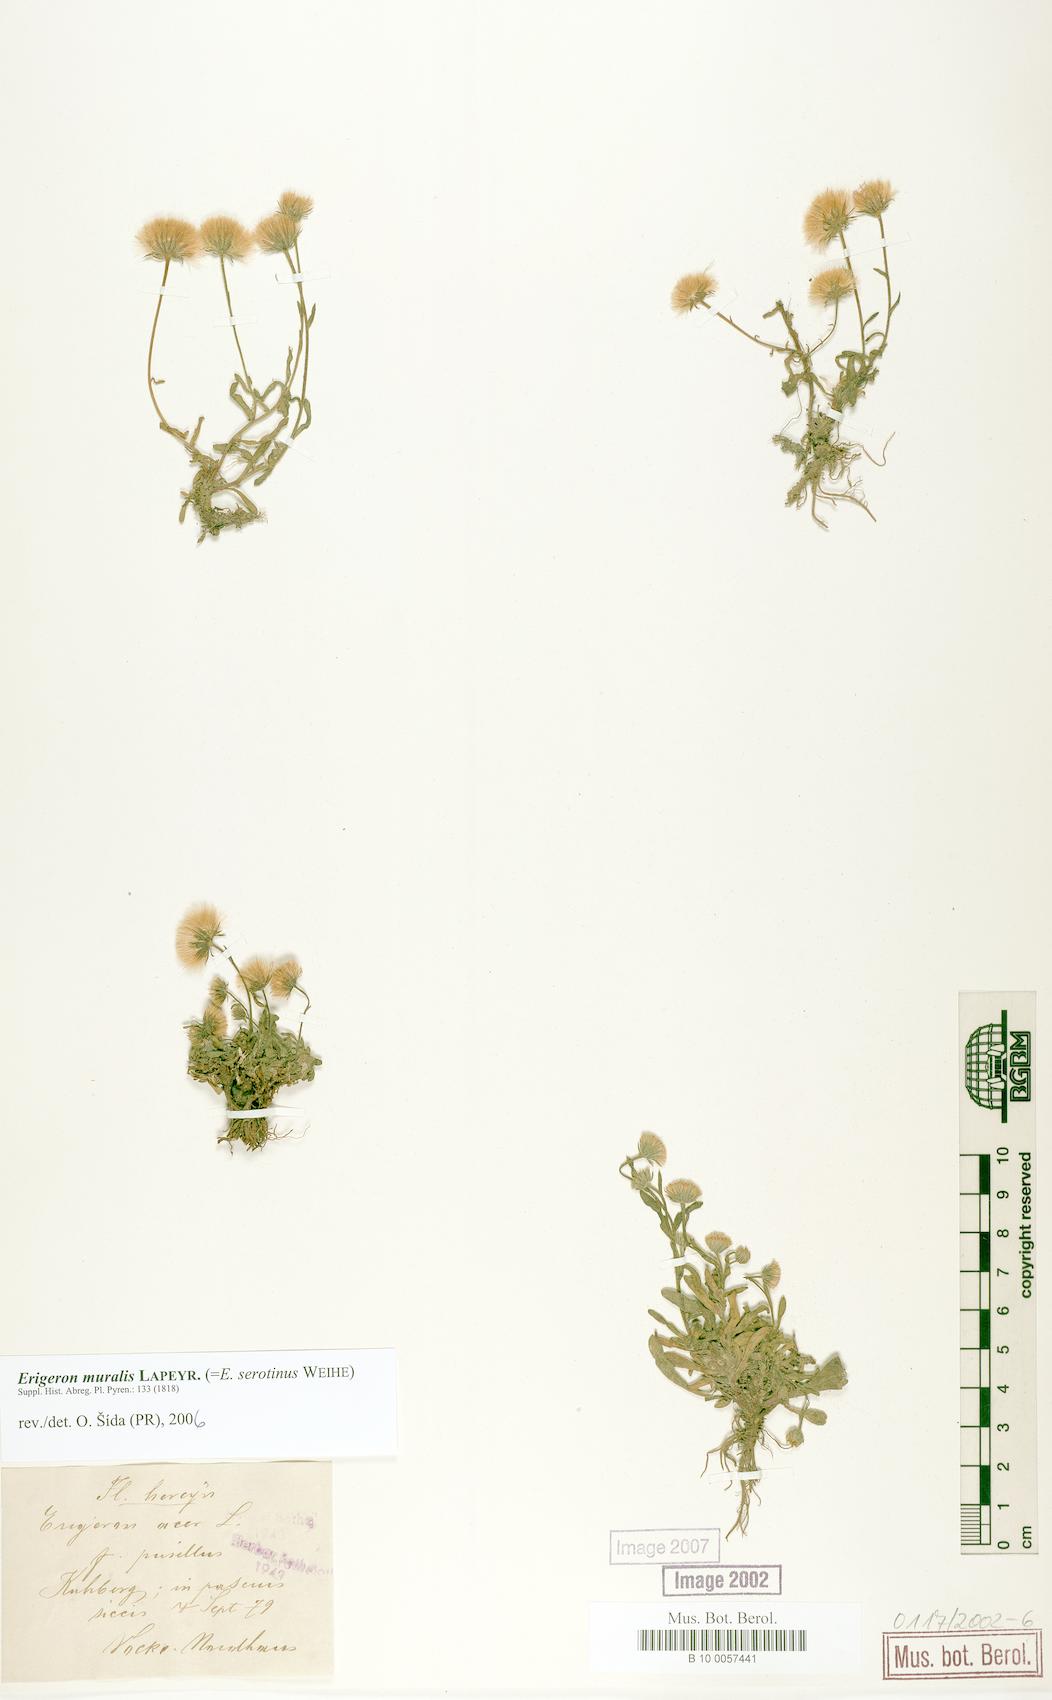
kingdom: Plantae
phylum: Tracheophyta
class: Magnoliopsida
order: Asterales
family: Asteraceae
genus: Erigeron
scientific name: Erigeron muralis
